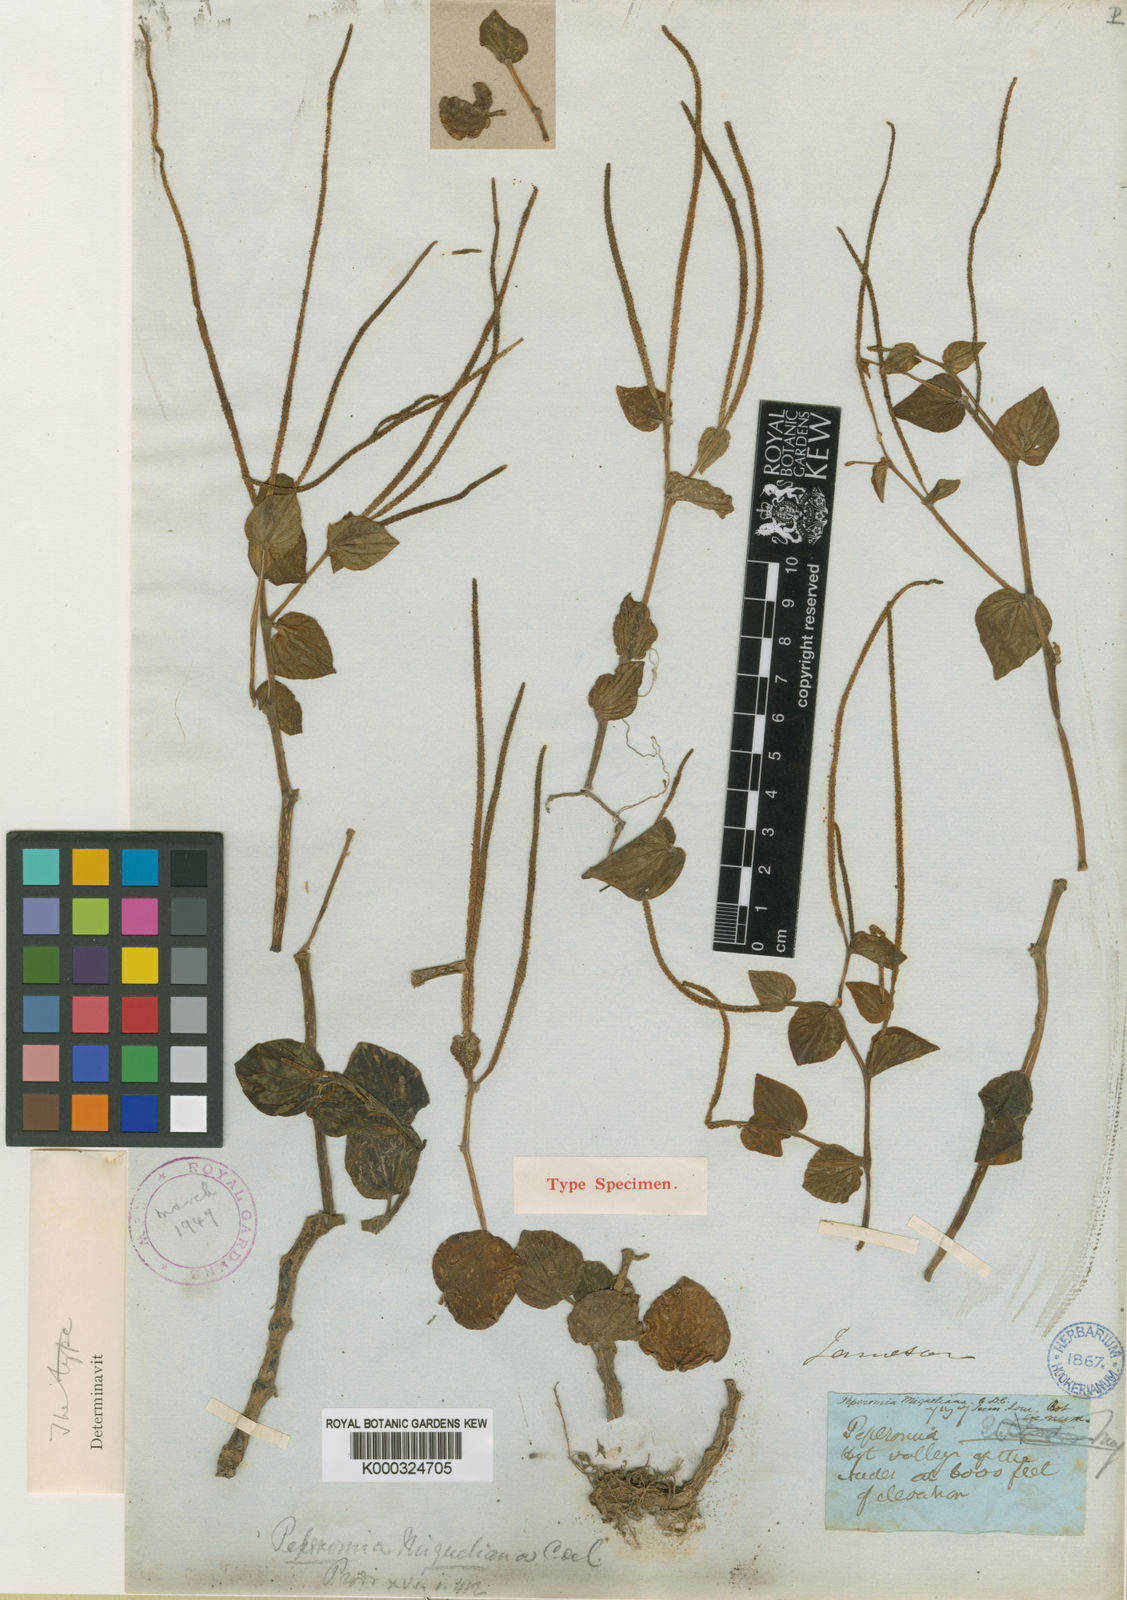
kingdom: Plantae
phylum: Tracheophyta
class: Magnoliopsida
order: Piperales
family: Piperaceae
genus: Peperomia
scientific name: Peperomia miqueliana
